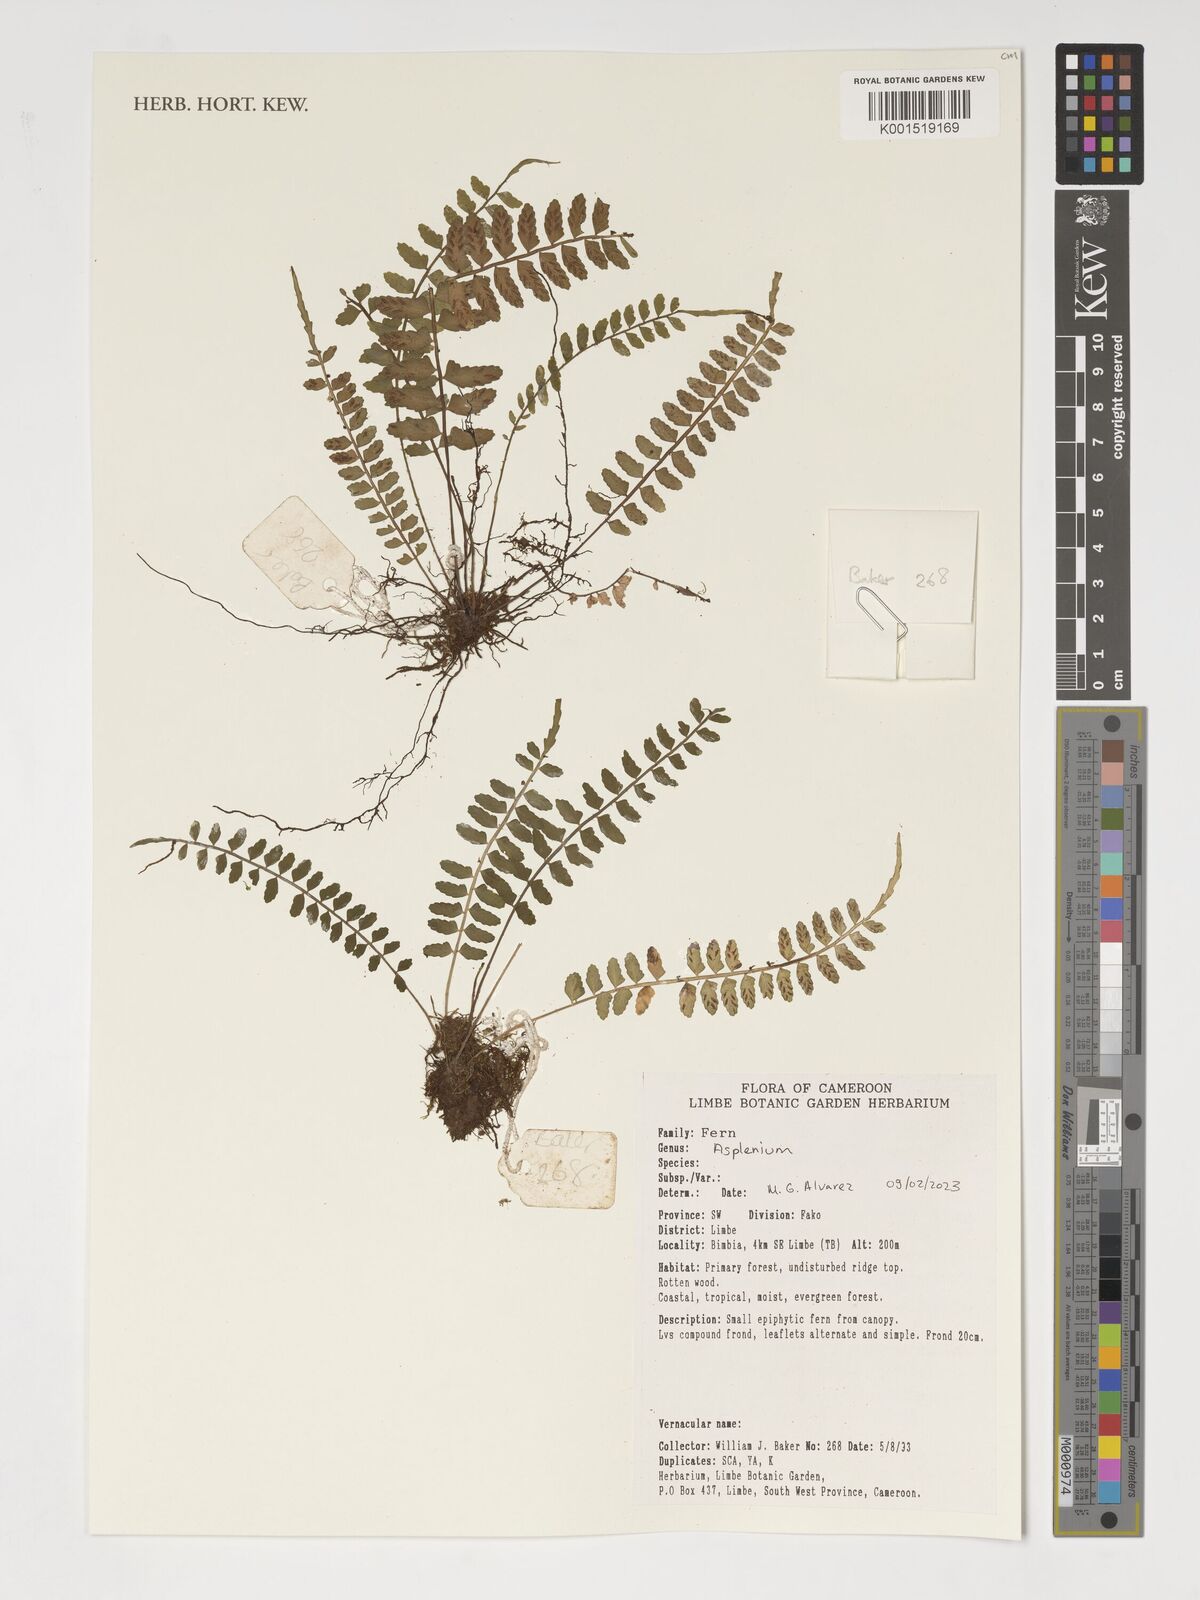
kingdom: Plantae
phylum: Tracheophyta
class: Polypodiopsida
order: Polypodiales
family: Aspleniaceae
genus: Asplenium
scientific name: Asplenium
